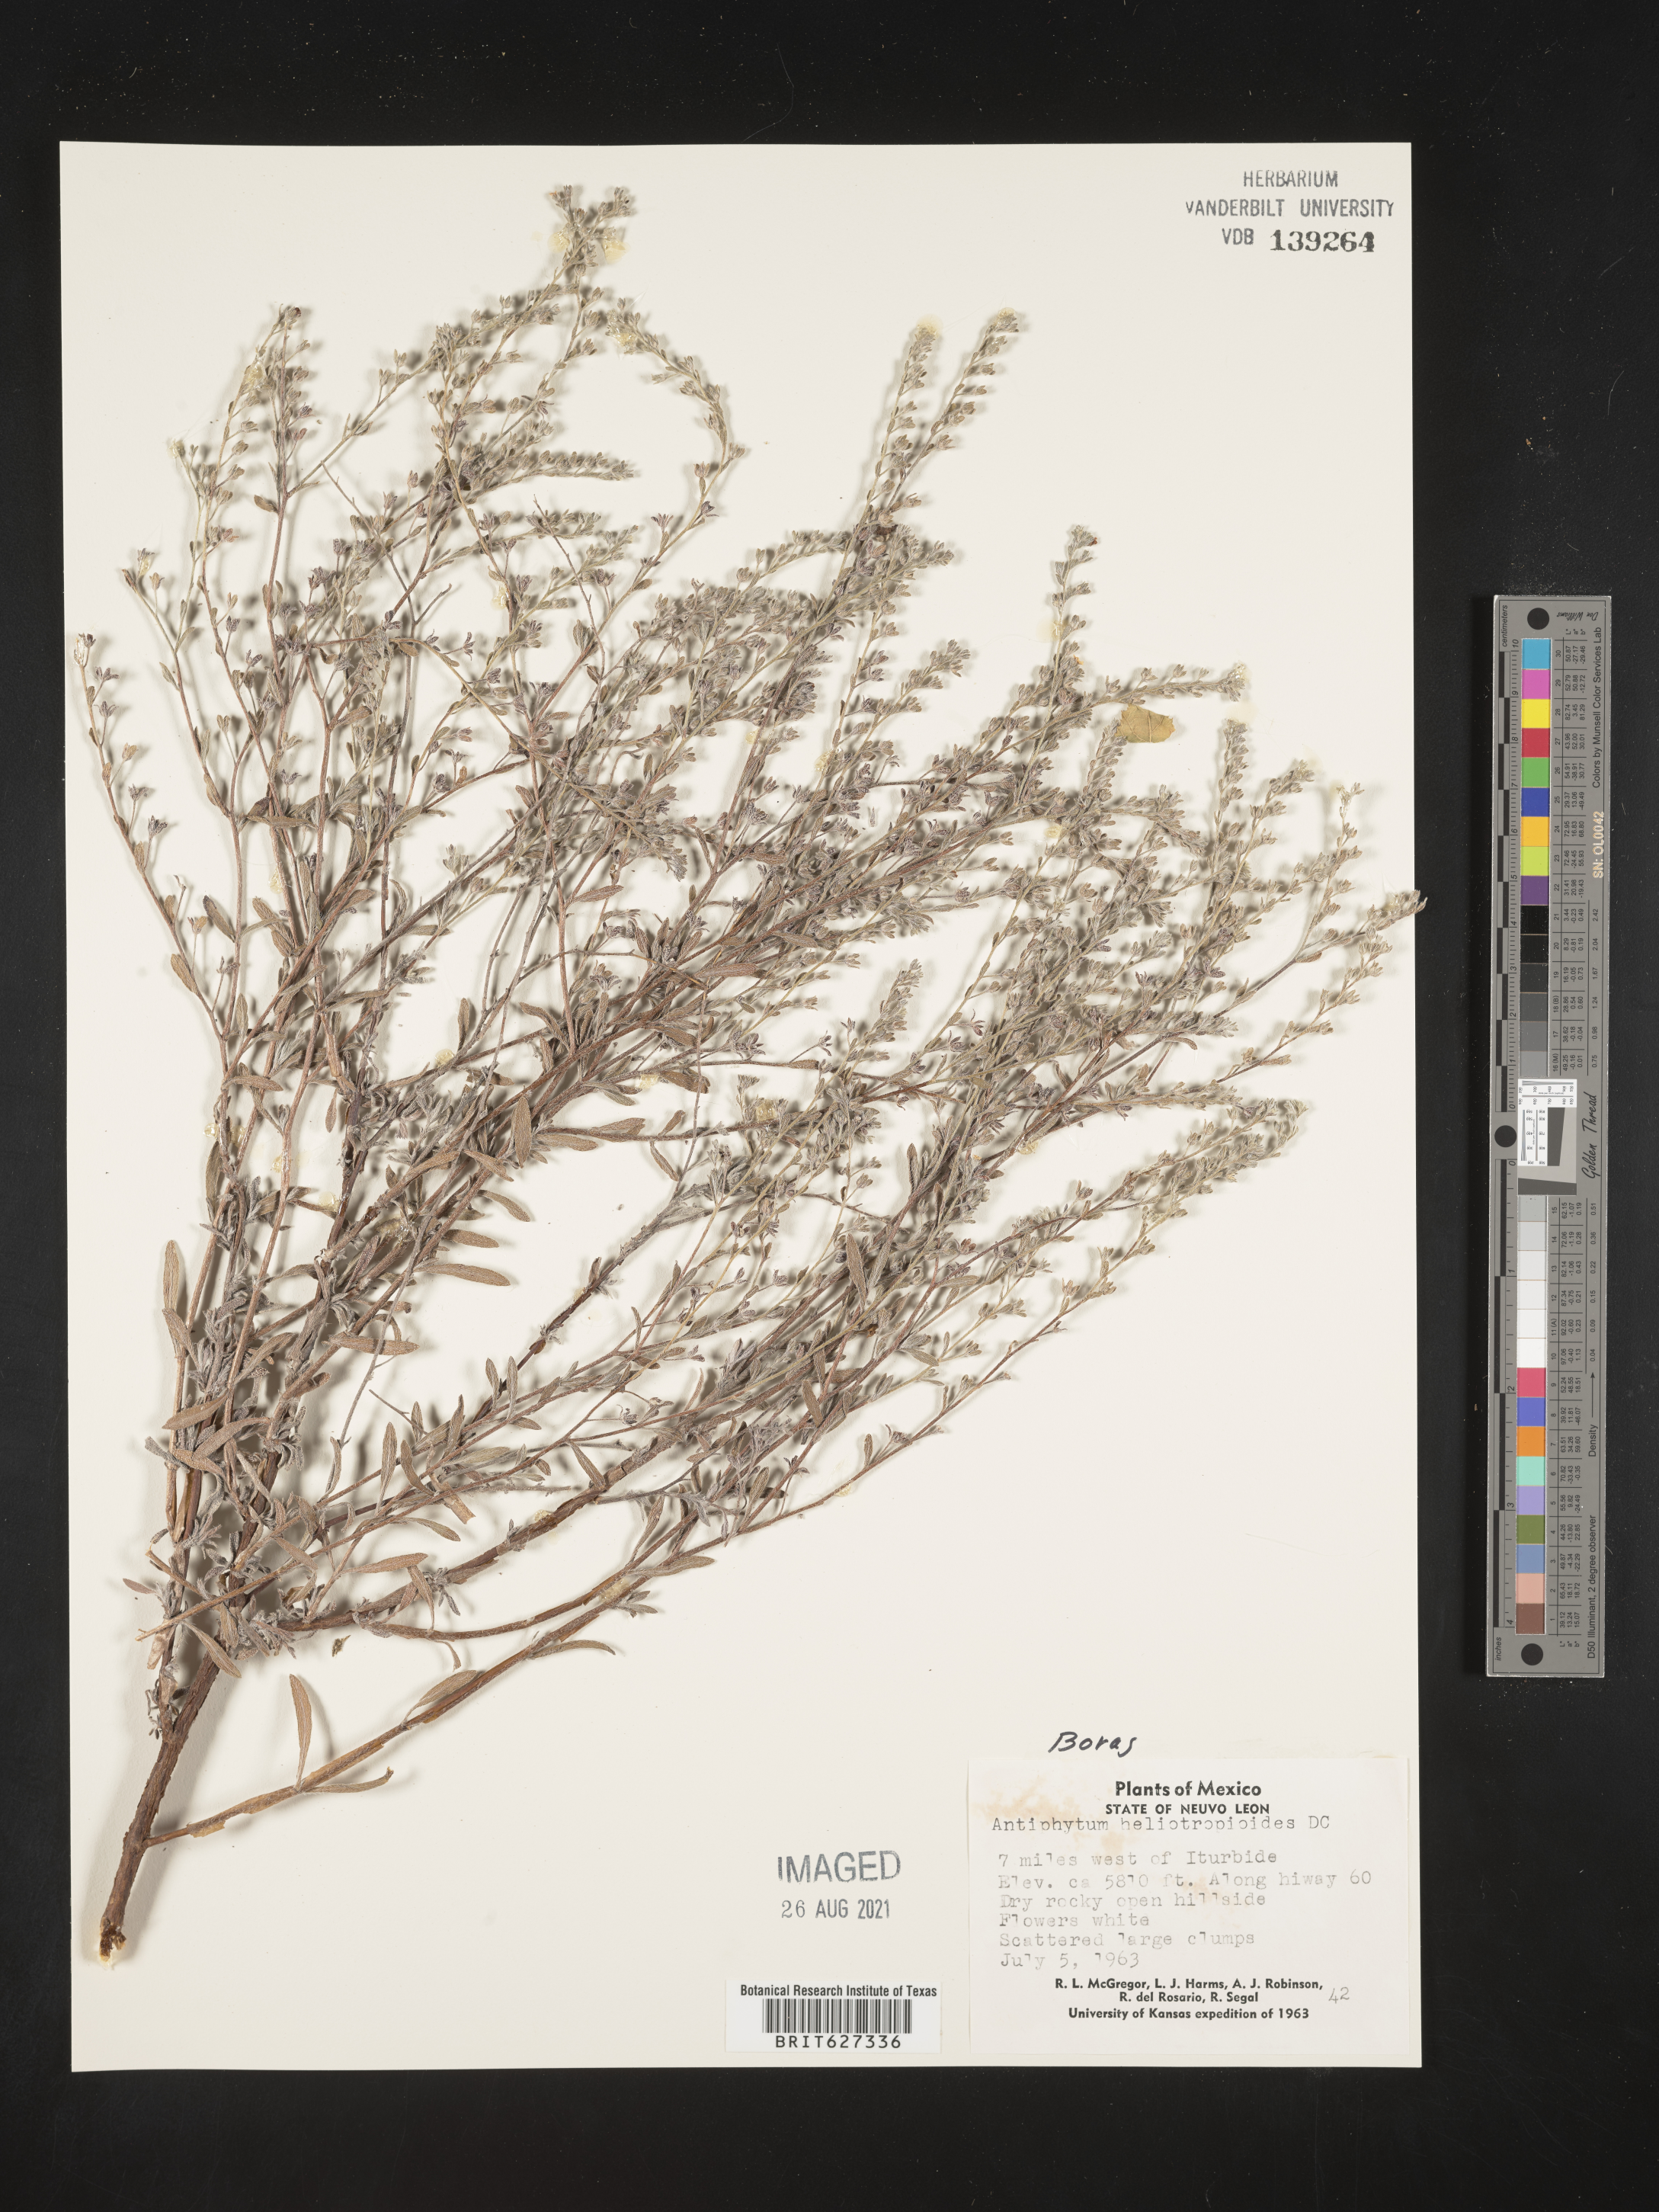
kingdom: Plantae
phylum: Tracheophyta
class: Magnoliopsida
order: Boraginales
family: Boraginaceae
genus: Antiphytum
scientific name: Antiphytum
